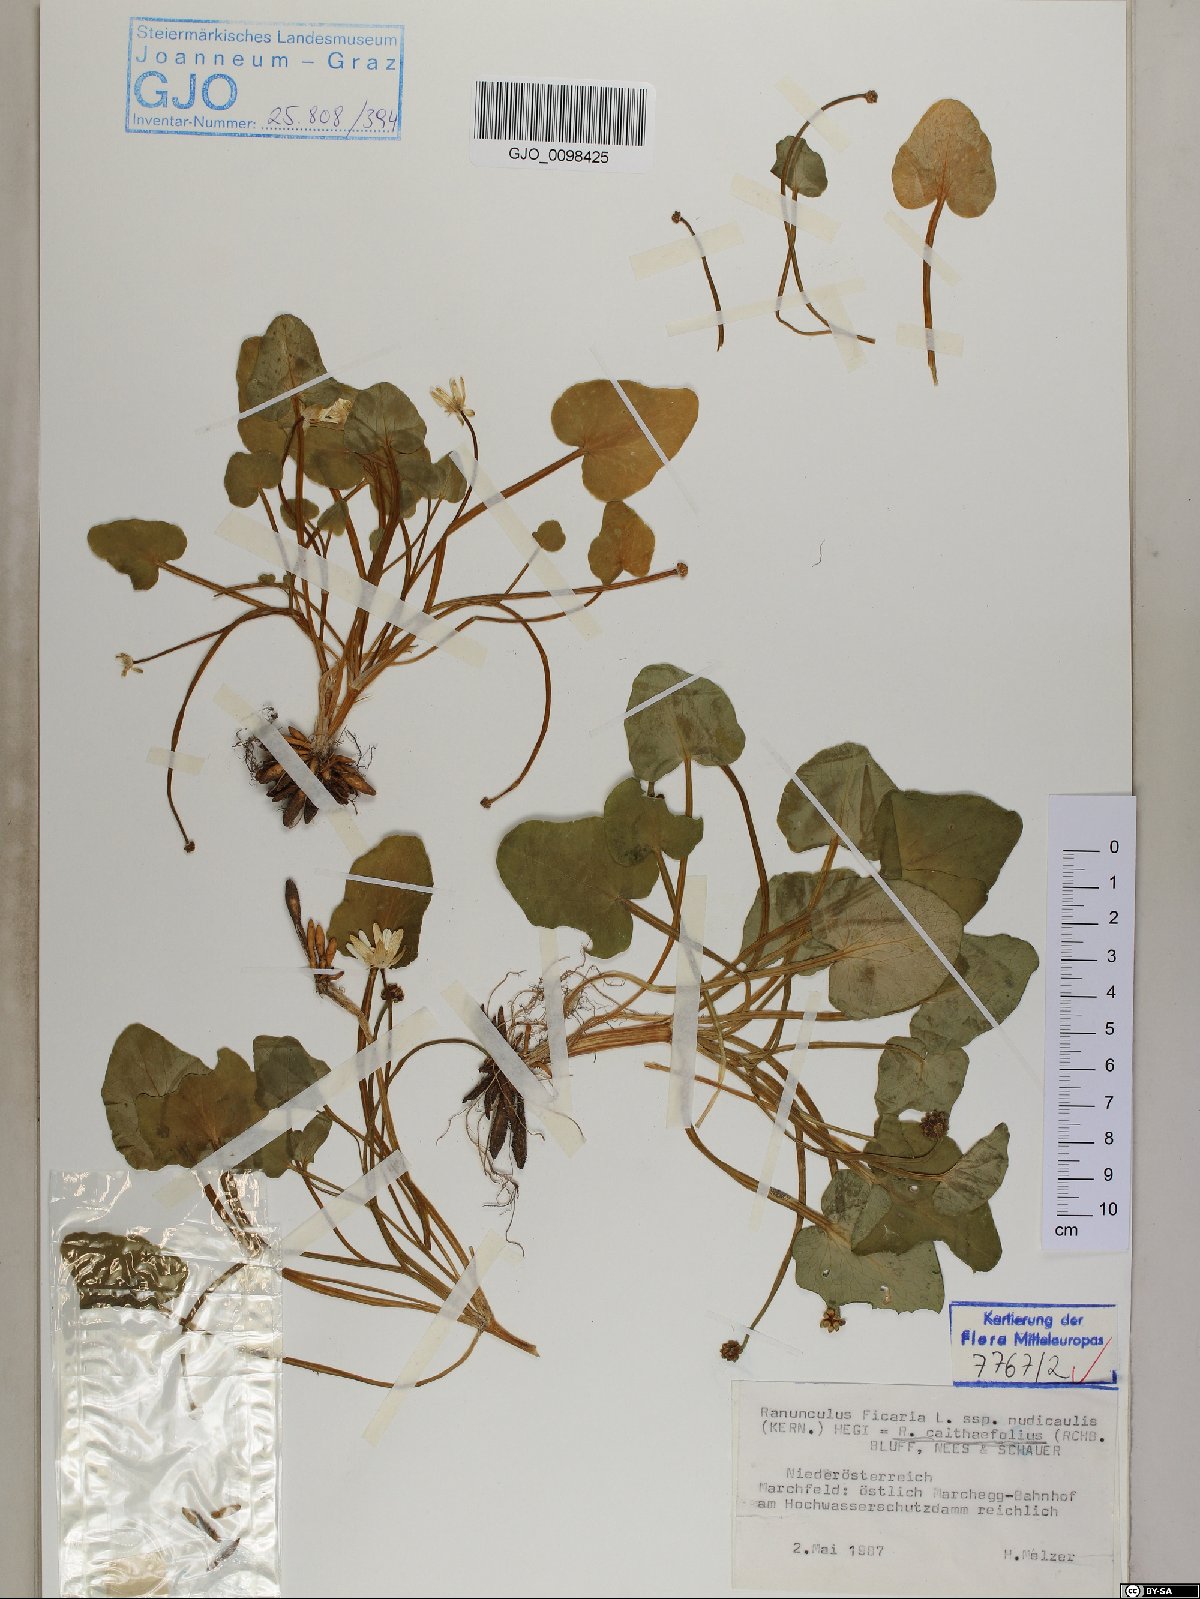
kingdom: Plantae
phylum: Tracheophyta
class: Magnoliopsida
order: Ranunculales
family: Ranunculaceae
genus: Ficaria
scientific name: Ficaria calthifolia
